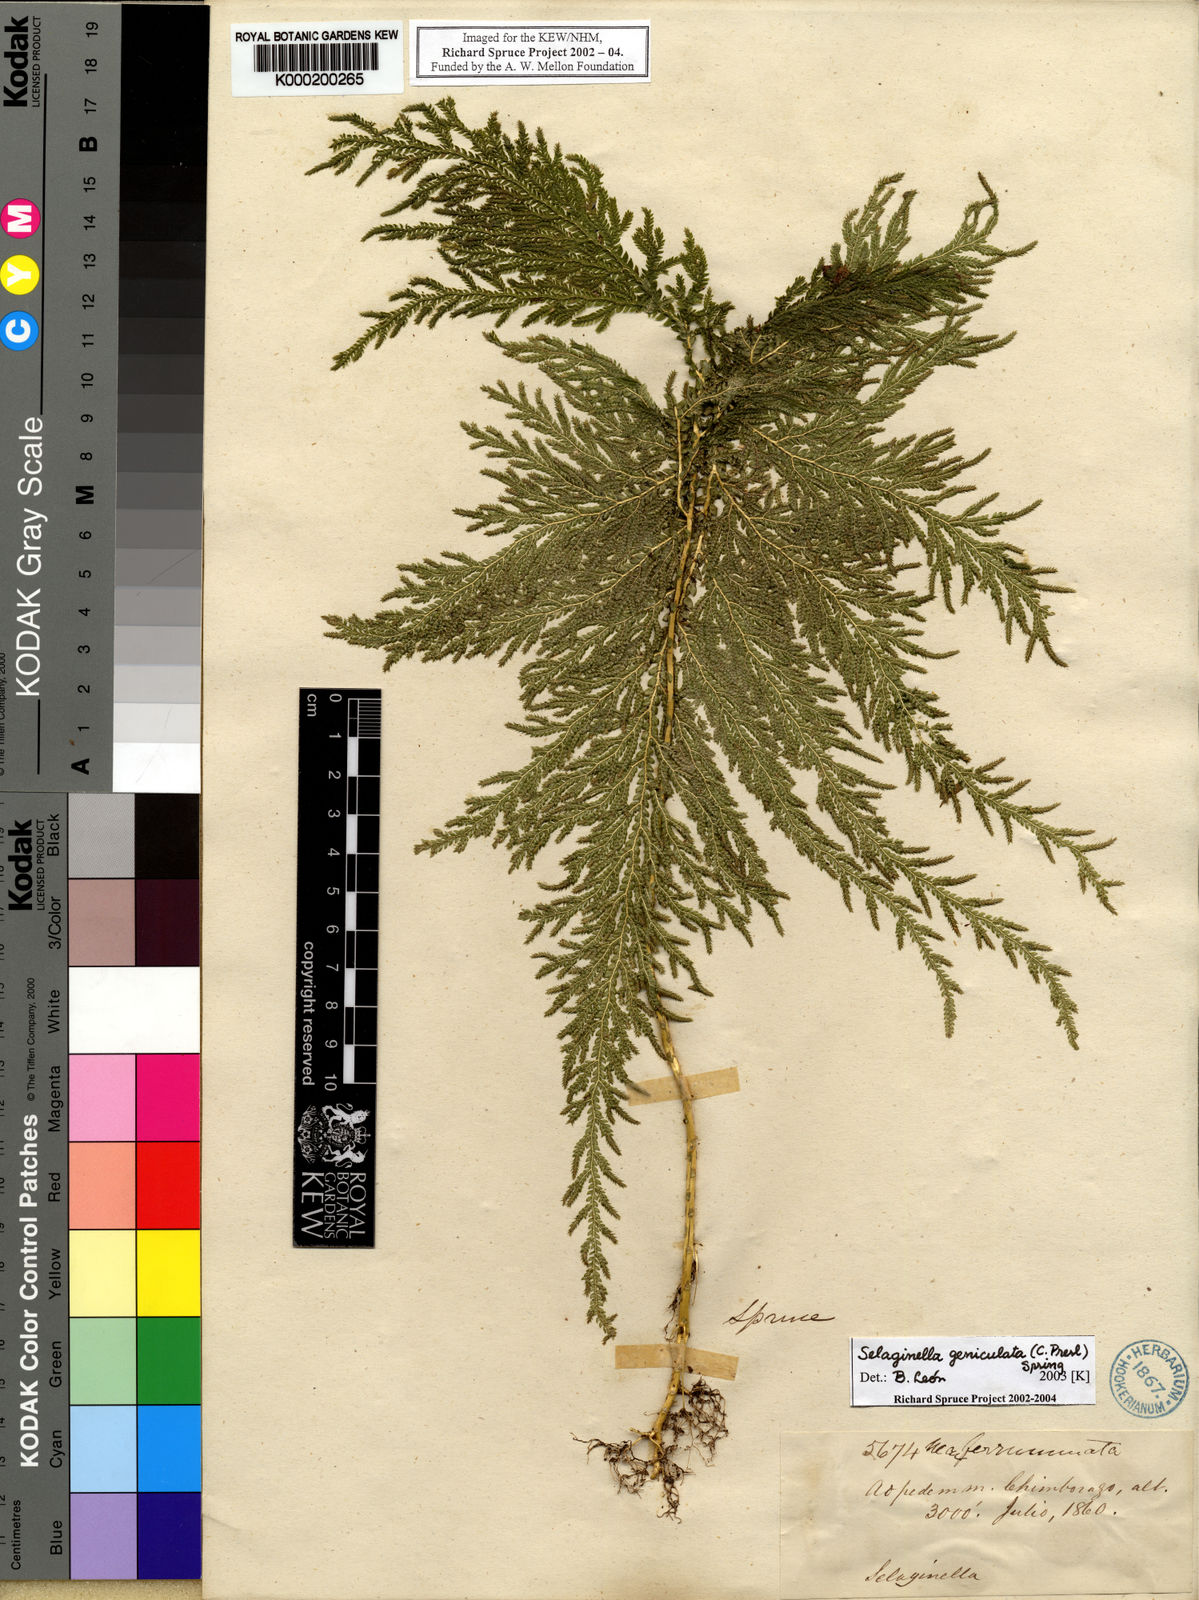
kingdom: Plantae
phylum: Tracheophyta
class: Lycopodiopsida
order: Selaginellales
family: Selaginellaceae
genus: Selaginella
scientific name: Selaginella geniculata
